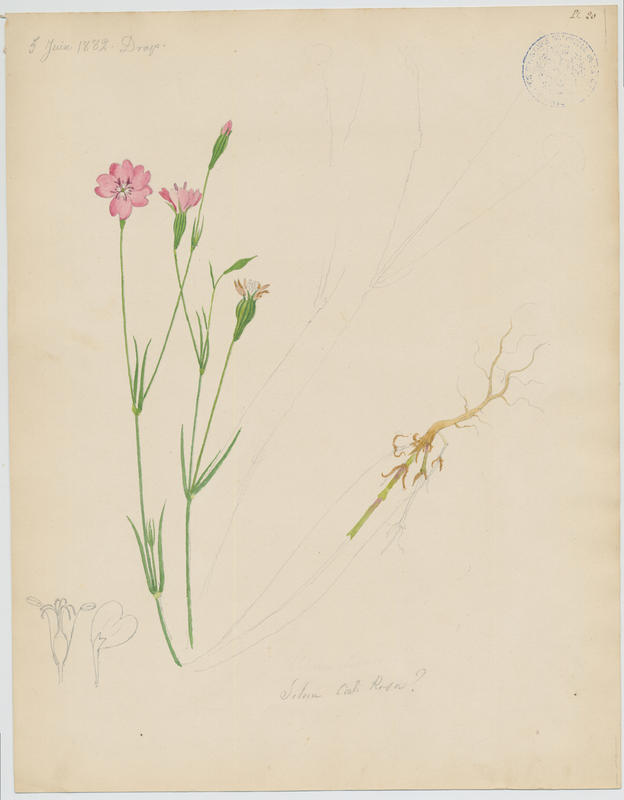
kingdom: Plantae
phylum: Tracheophyta
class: Magnoliopsida
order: Caryophyllales
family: Caryophyllaceae
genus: Eudianthe
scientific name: Eudianthe coeli-rosa
